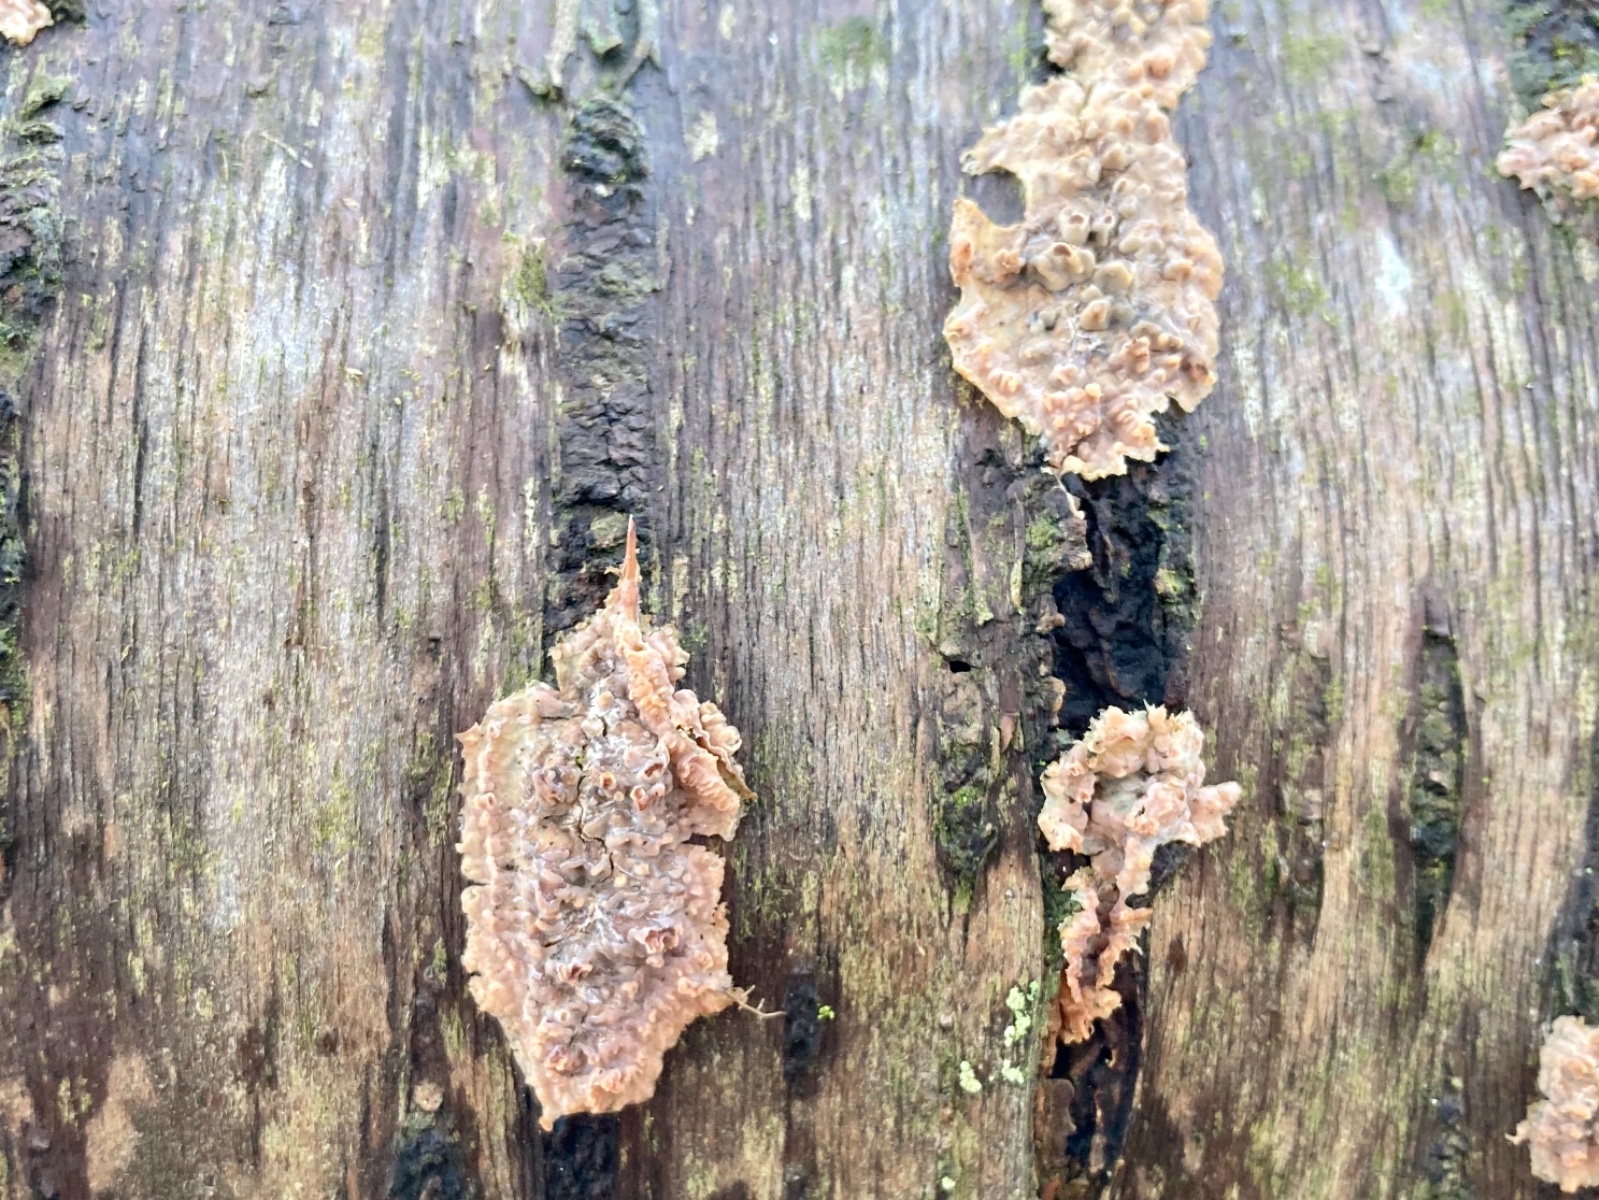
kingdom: Fungi
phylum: Basidiomycota
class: Agaricomycetes
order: Polyporales
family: Meruliaceae
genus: Phlebia
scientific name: Phlebia radiata
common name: stråle-åresvamp
